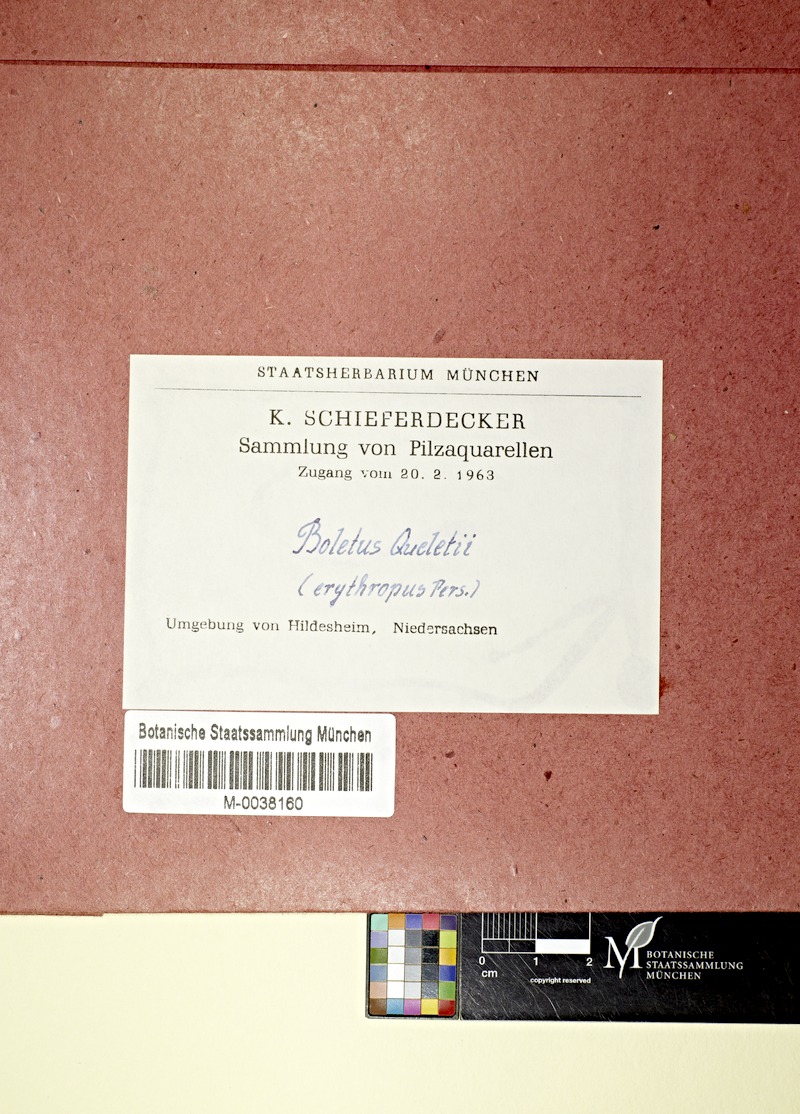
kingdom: Fungi
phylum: Basidiomycota
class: Agaricomycetes
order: Boletales
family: Boletaceae
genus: Suillellus
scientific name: Suillellus queletii
